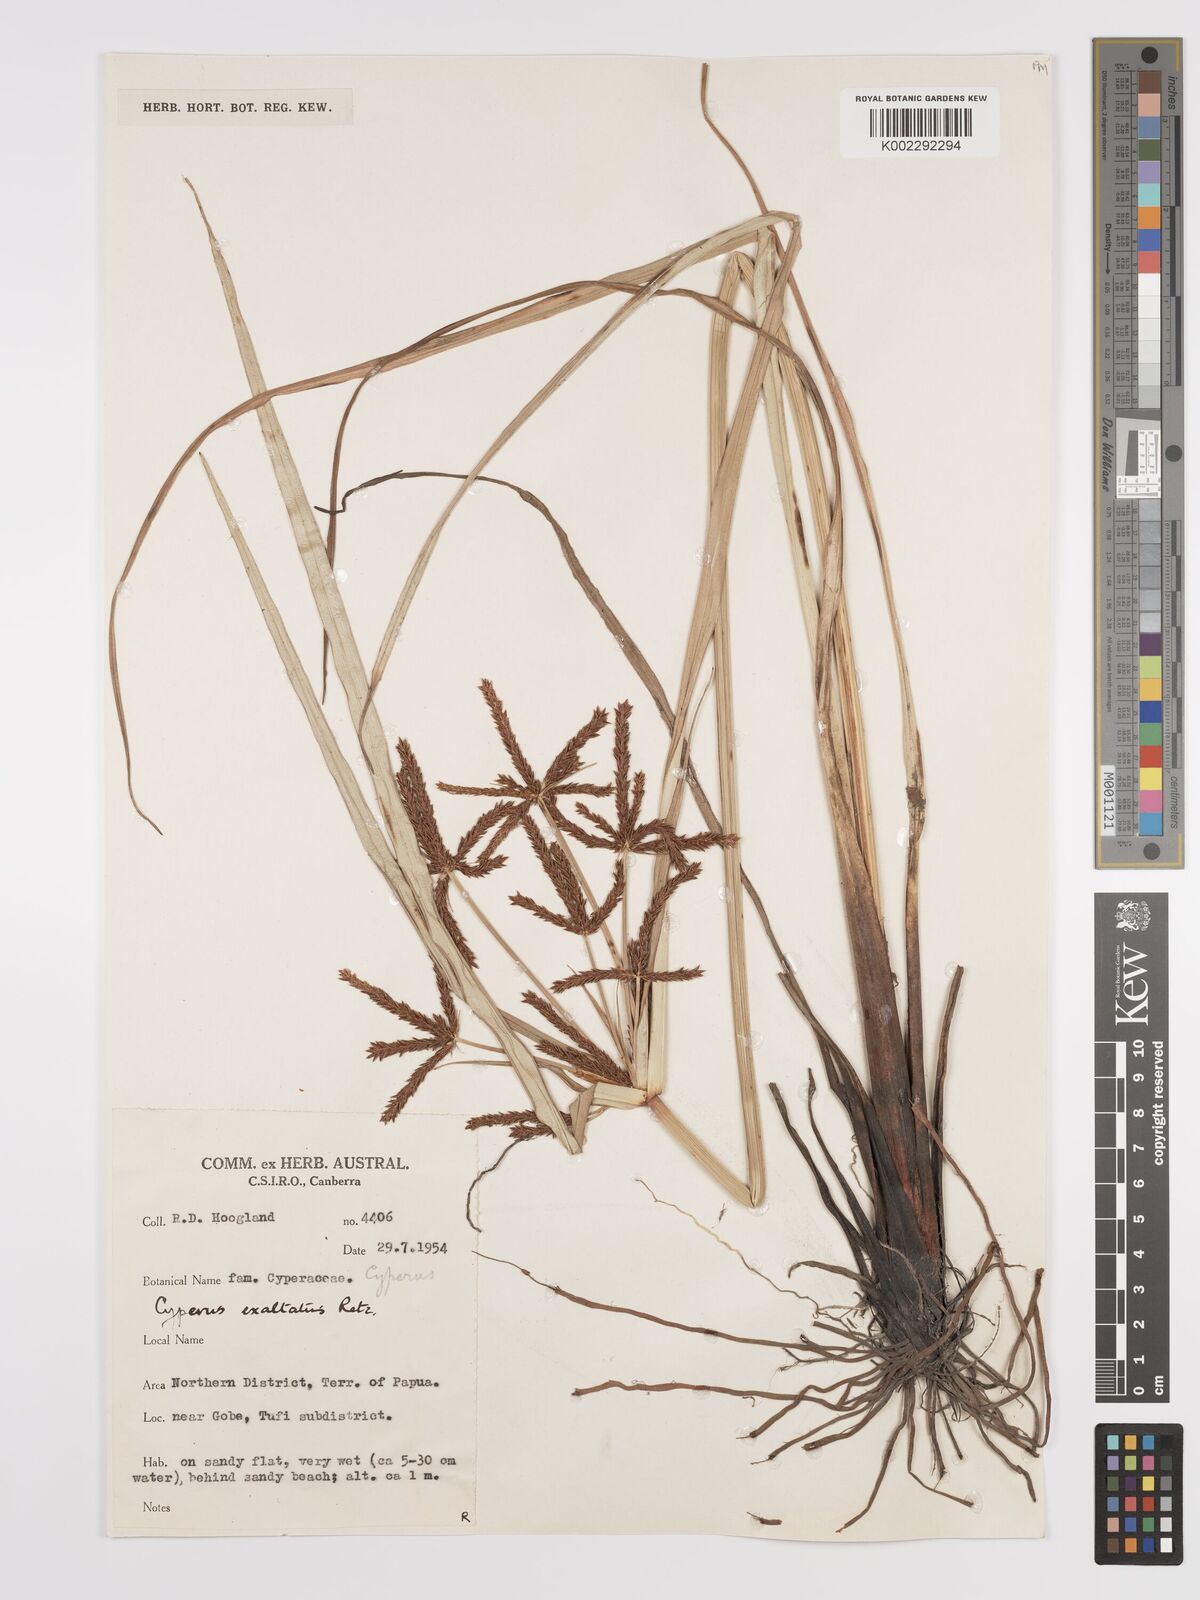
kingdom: Plantae
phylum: Tracheophyta
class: Liliopsida
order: Poales
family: Cyperaceae
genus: Cyperus
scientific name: Cyperus exaltatus
